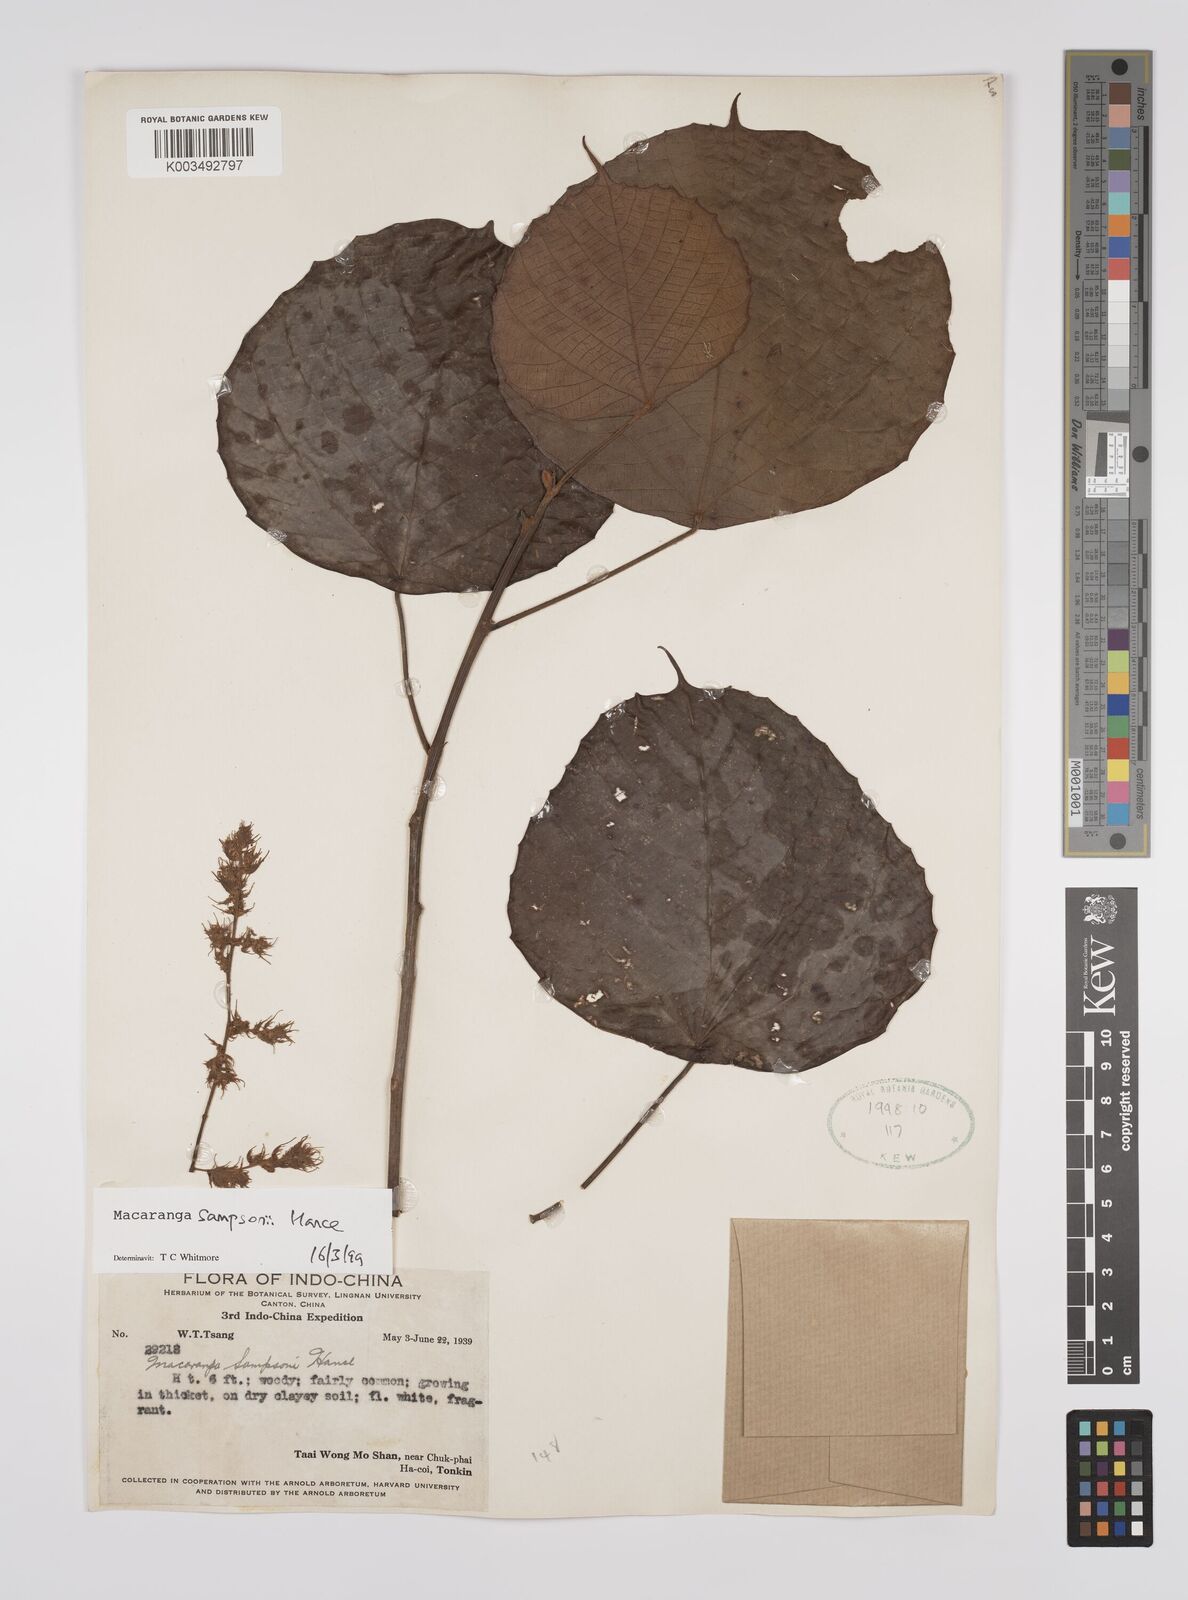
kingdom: Plantae
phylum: Tracheophyta
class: Magnoliopsida
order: Malpighiales
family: Euphorbiaceae
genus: Macaranga
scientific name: Macaranga sampsonii
